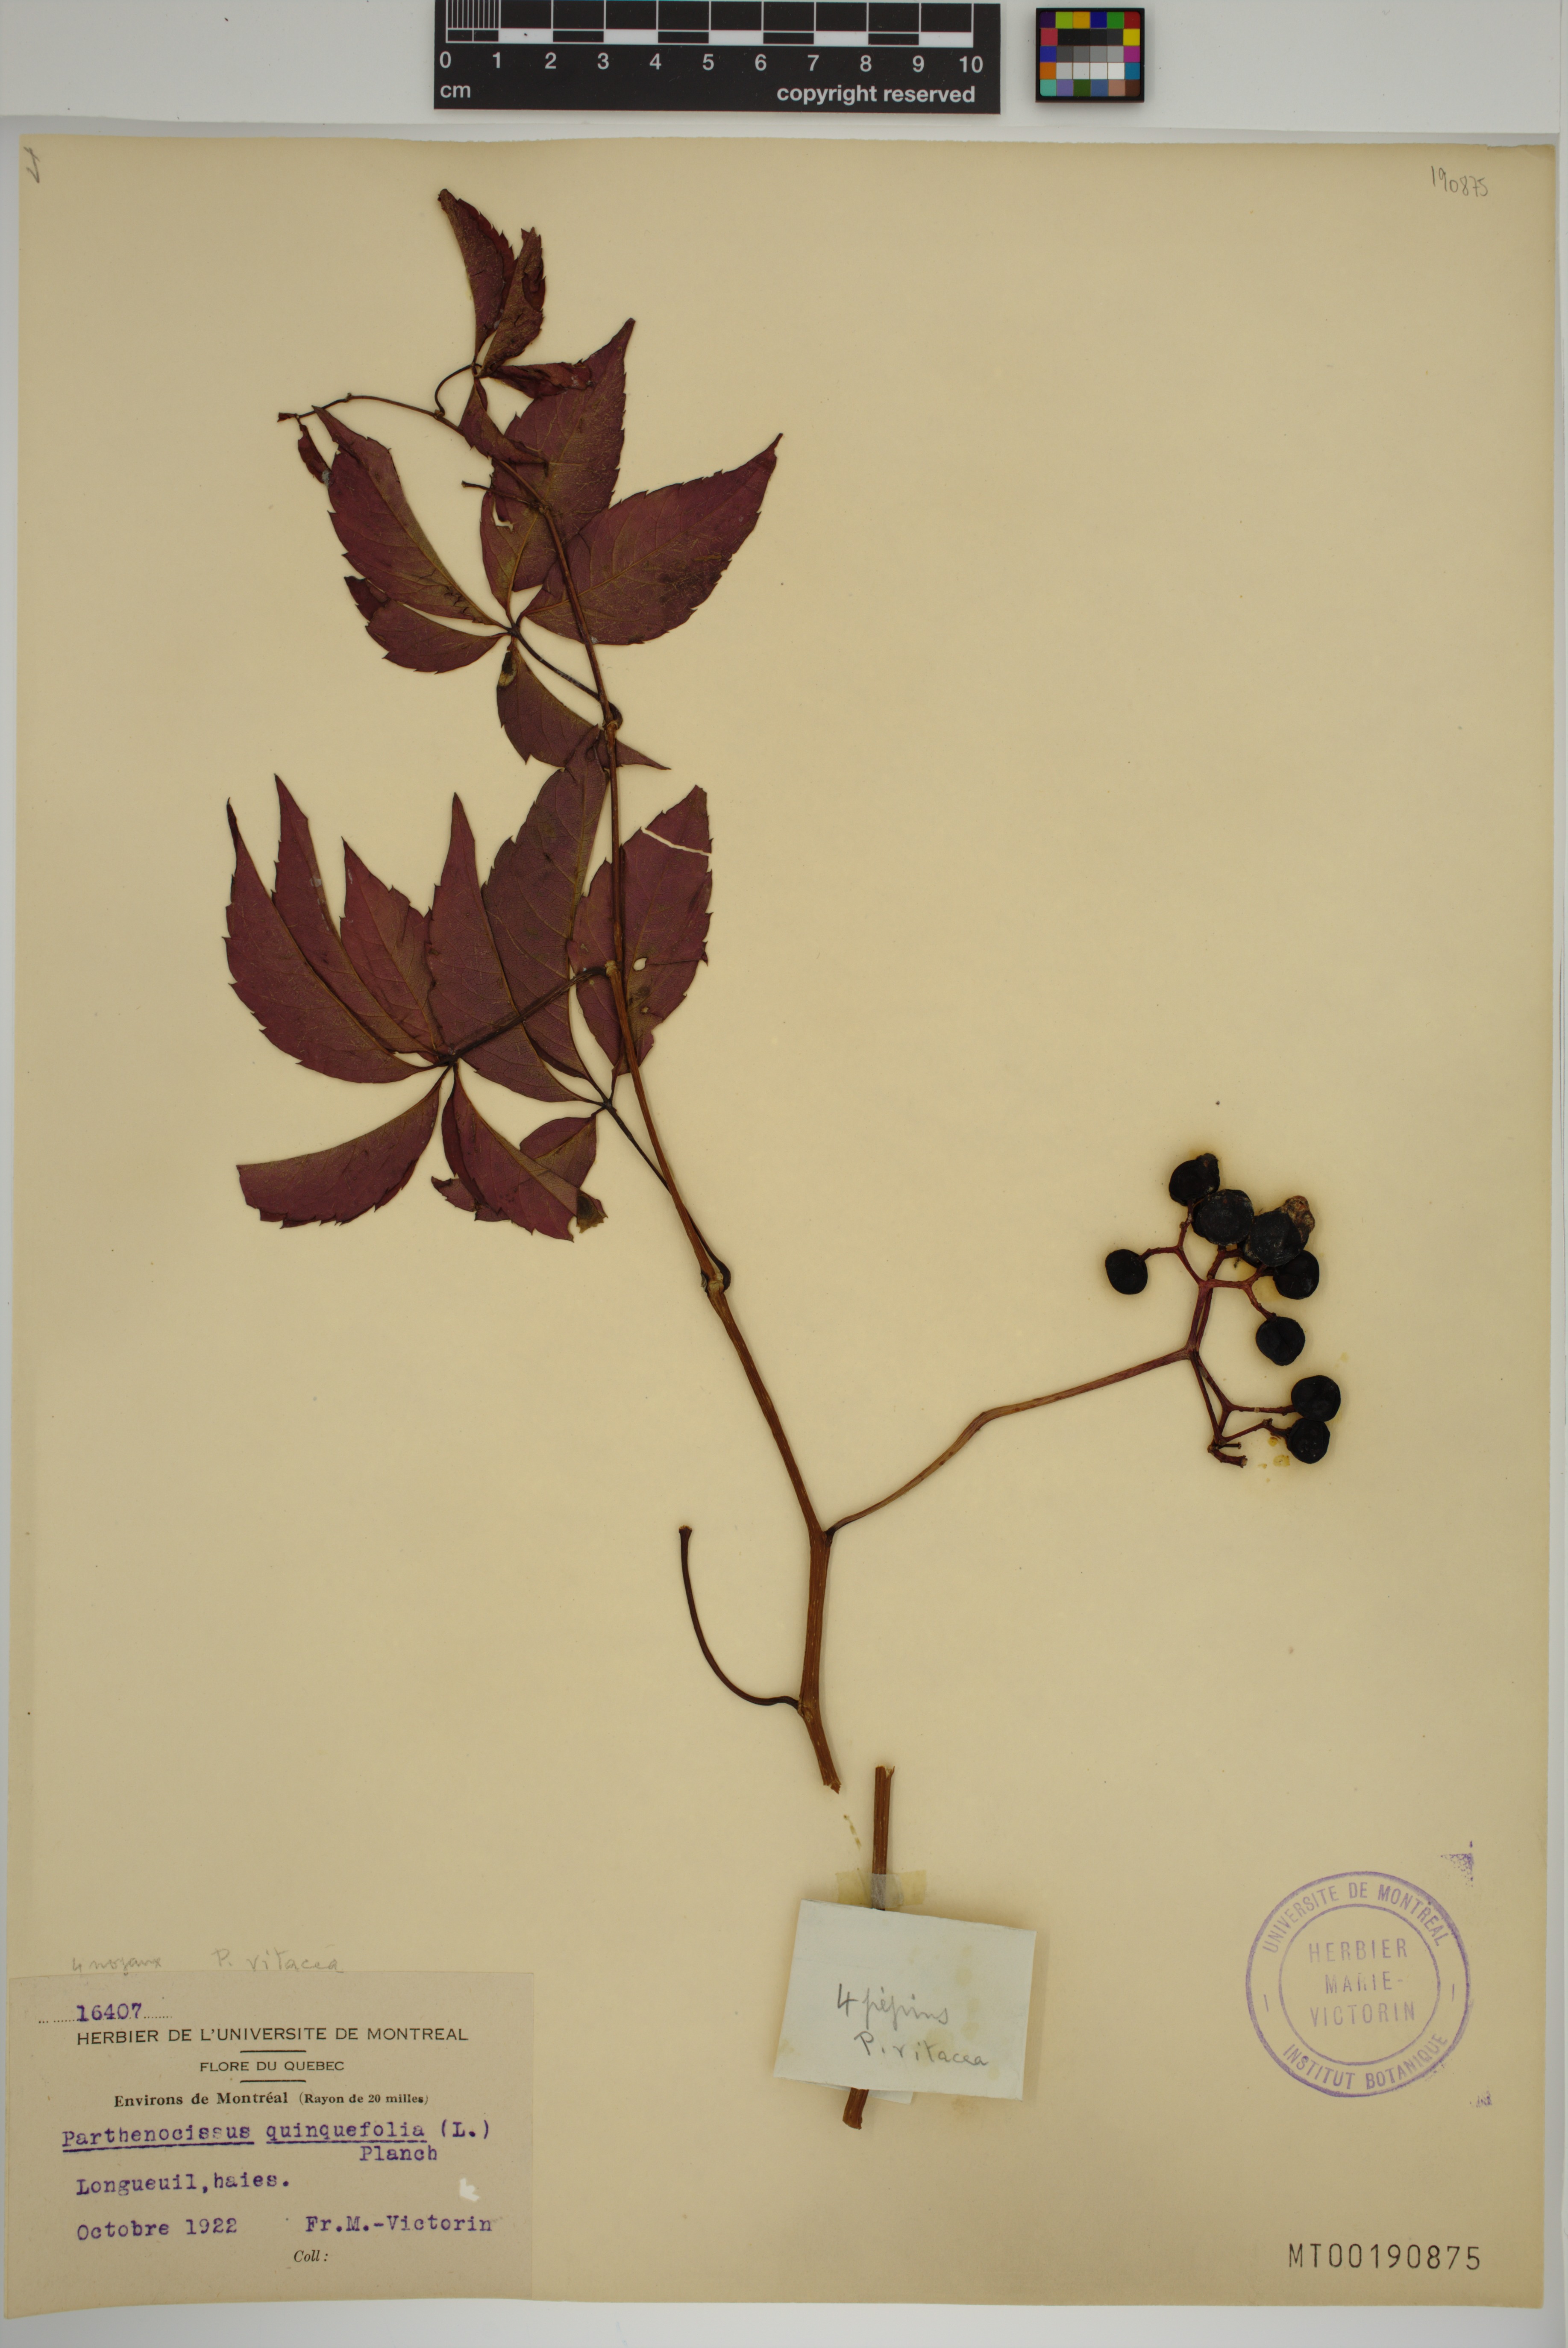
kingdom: Plantae
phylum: Tracheophyta
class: Magnoliopsida
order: Vitales
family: Vitaceae
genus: Parthenocissus
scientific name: Parthenocissus inserta
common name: False virginia-creeper
